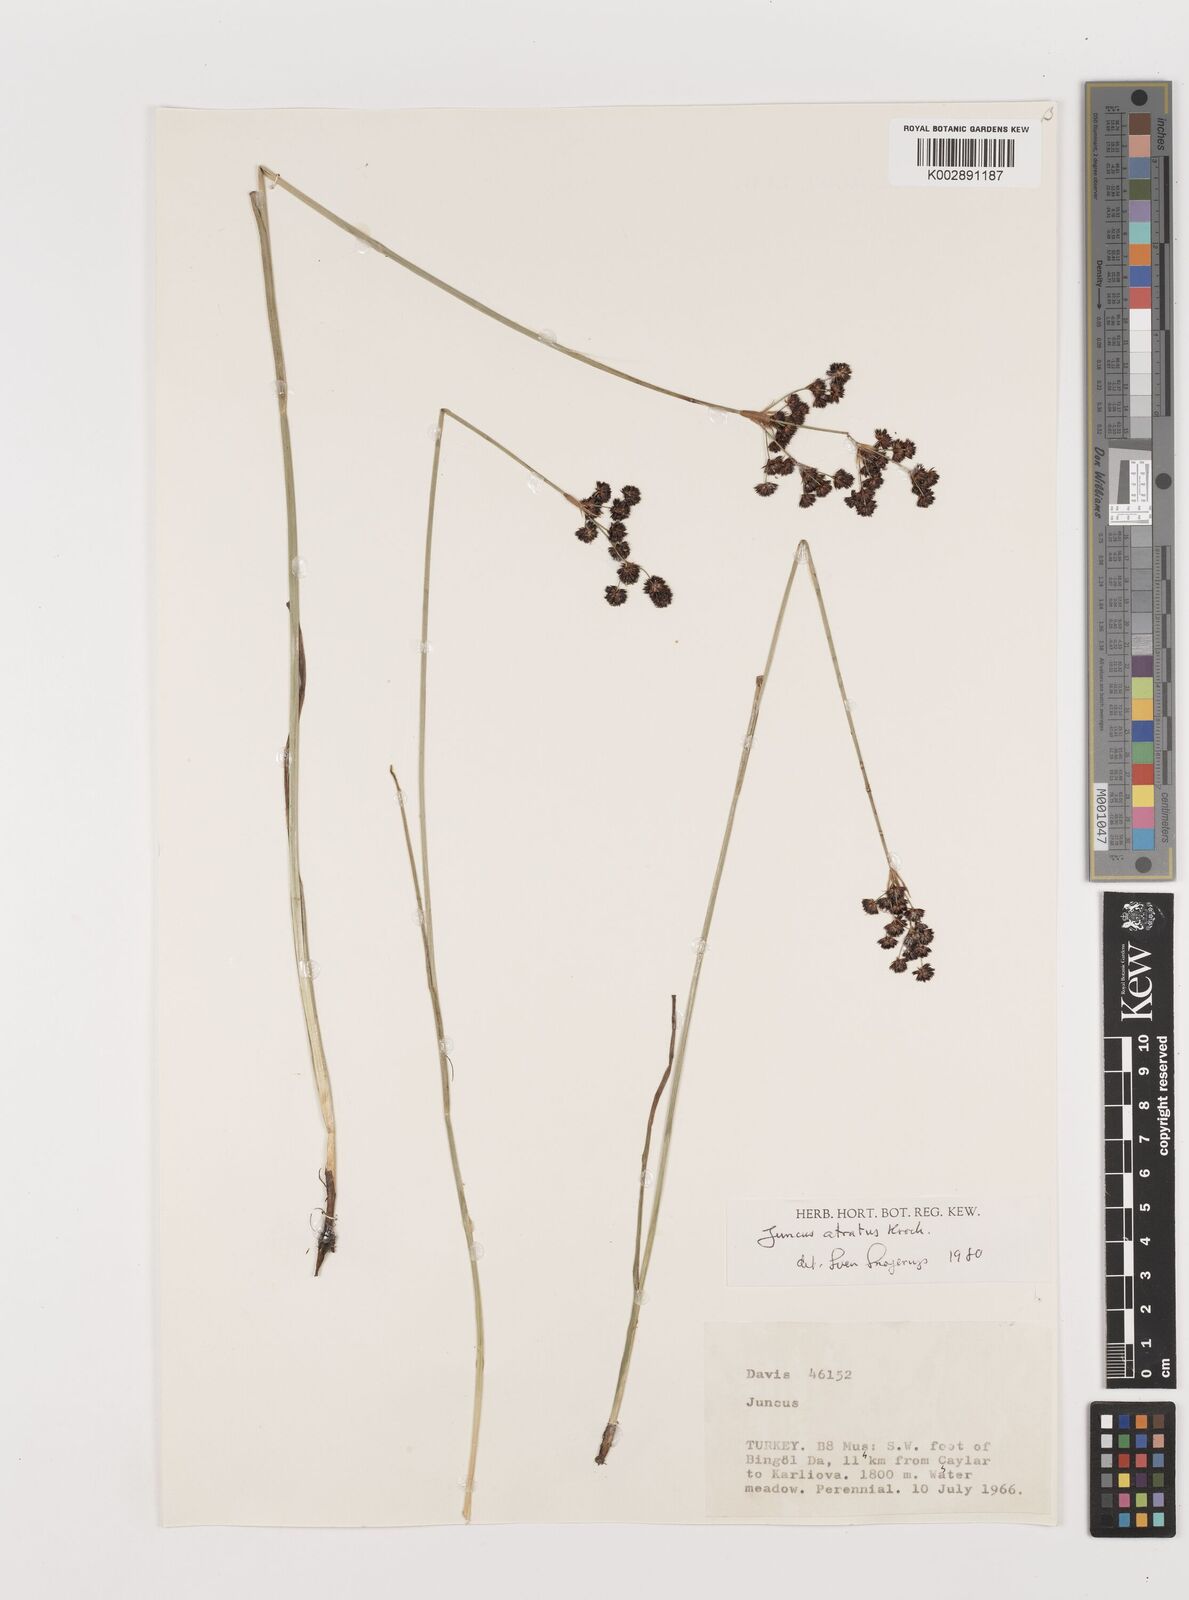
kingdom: Plantae
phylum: Tracheophyta
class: Liliopsida
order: Poales
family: Juncaceae
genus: Juncus
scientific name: Juncus jacquinii
